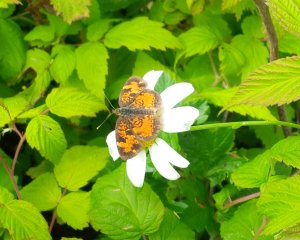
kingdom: Animalia
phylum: Arthropoda
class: Insecta
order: Lepidoptera
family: Nymphalidae
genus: Phyciodes
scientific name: Phyciodes tharos
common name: Northern Crescent
